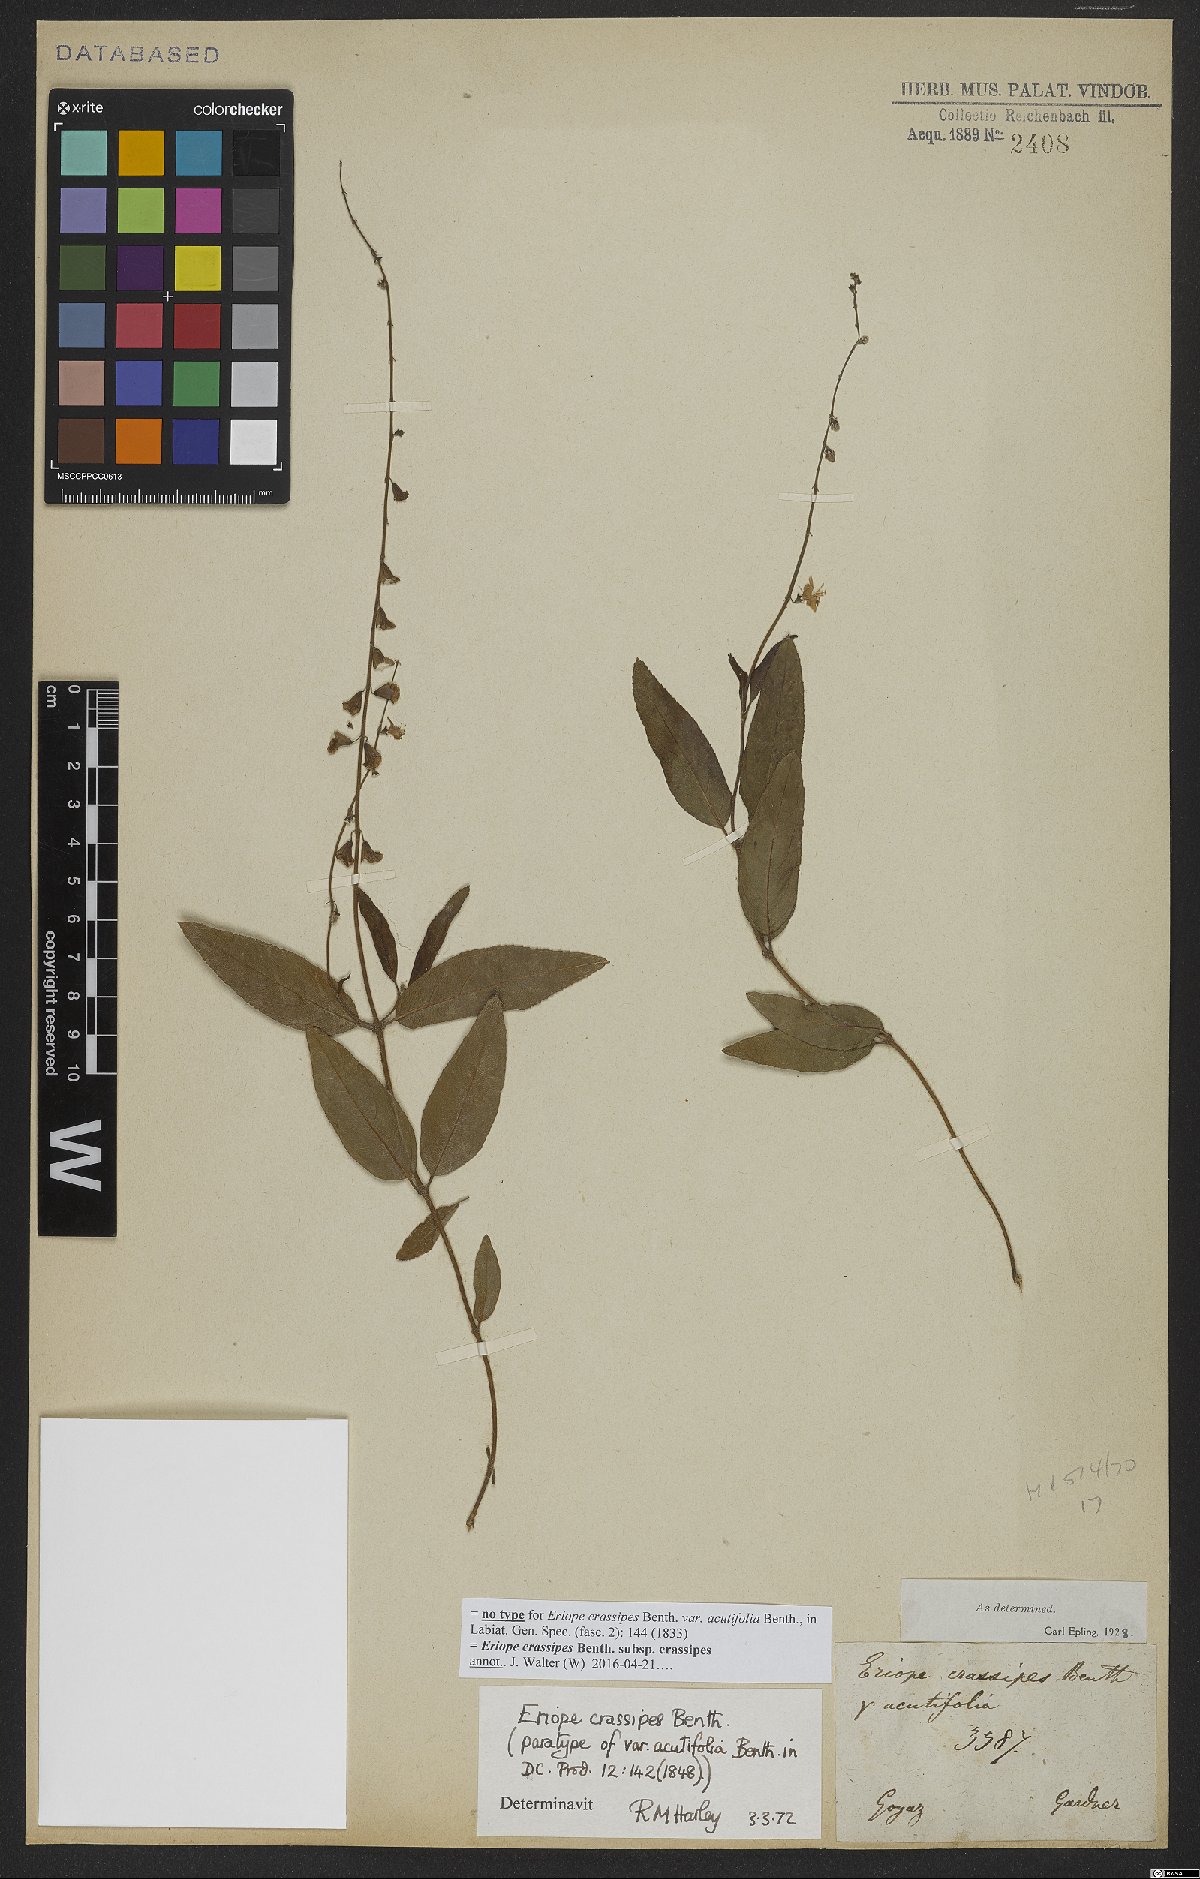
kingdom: Plantae
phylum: Tracheophyta
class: Magnoliopsida
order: Lamiales
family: Lamiaceae
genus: Eriope
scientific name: Eriope crassipes
